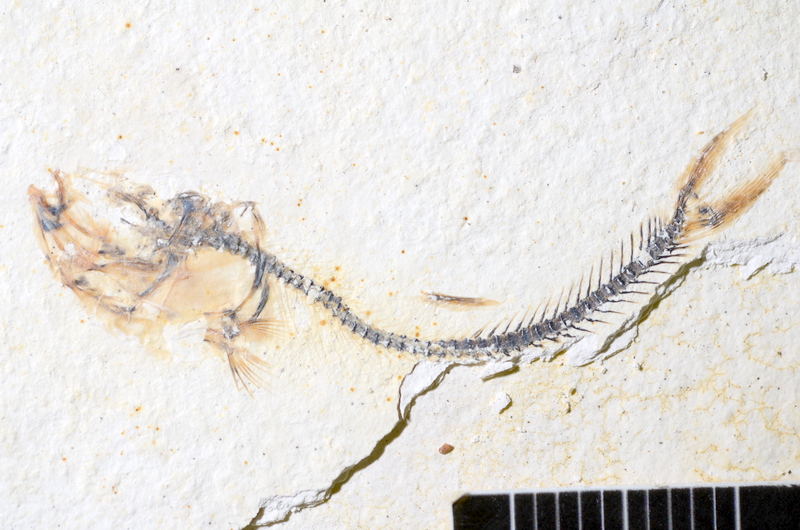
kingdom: Animalia
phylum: Chordata
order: Salmoniformes
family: Orthogonikleithridae
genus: Orthogonikleithrus
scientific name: Orthogonikleithrus hoelli
